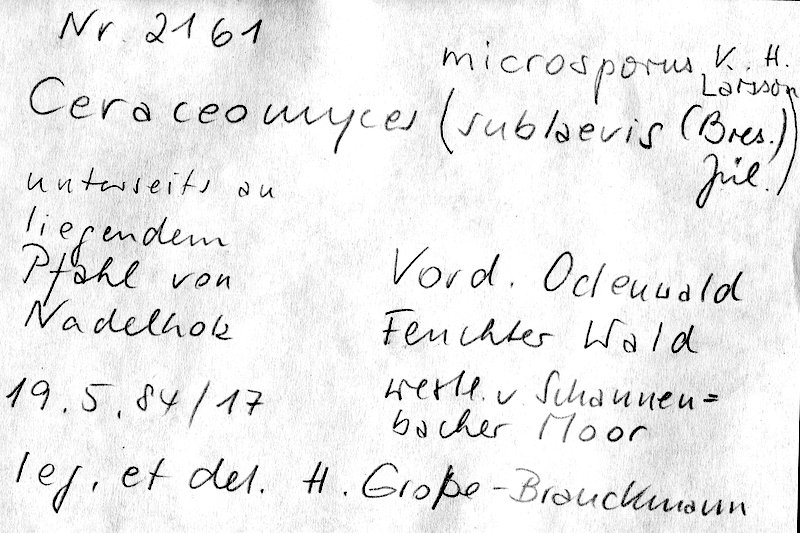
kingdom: Fungi
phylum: Basidiomycota
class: Agaricomycetes
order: Amylocorticiales
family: Amylocorticiaceae
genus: Ceraceomyces
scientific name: Ceraceomyces microsporus
